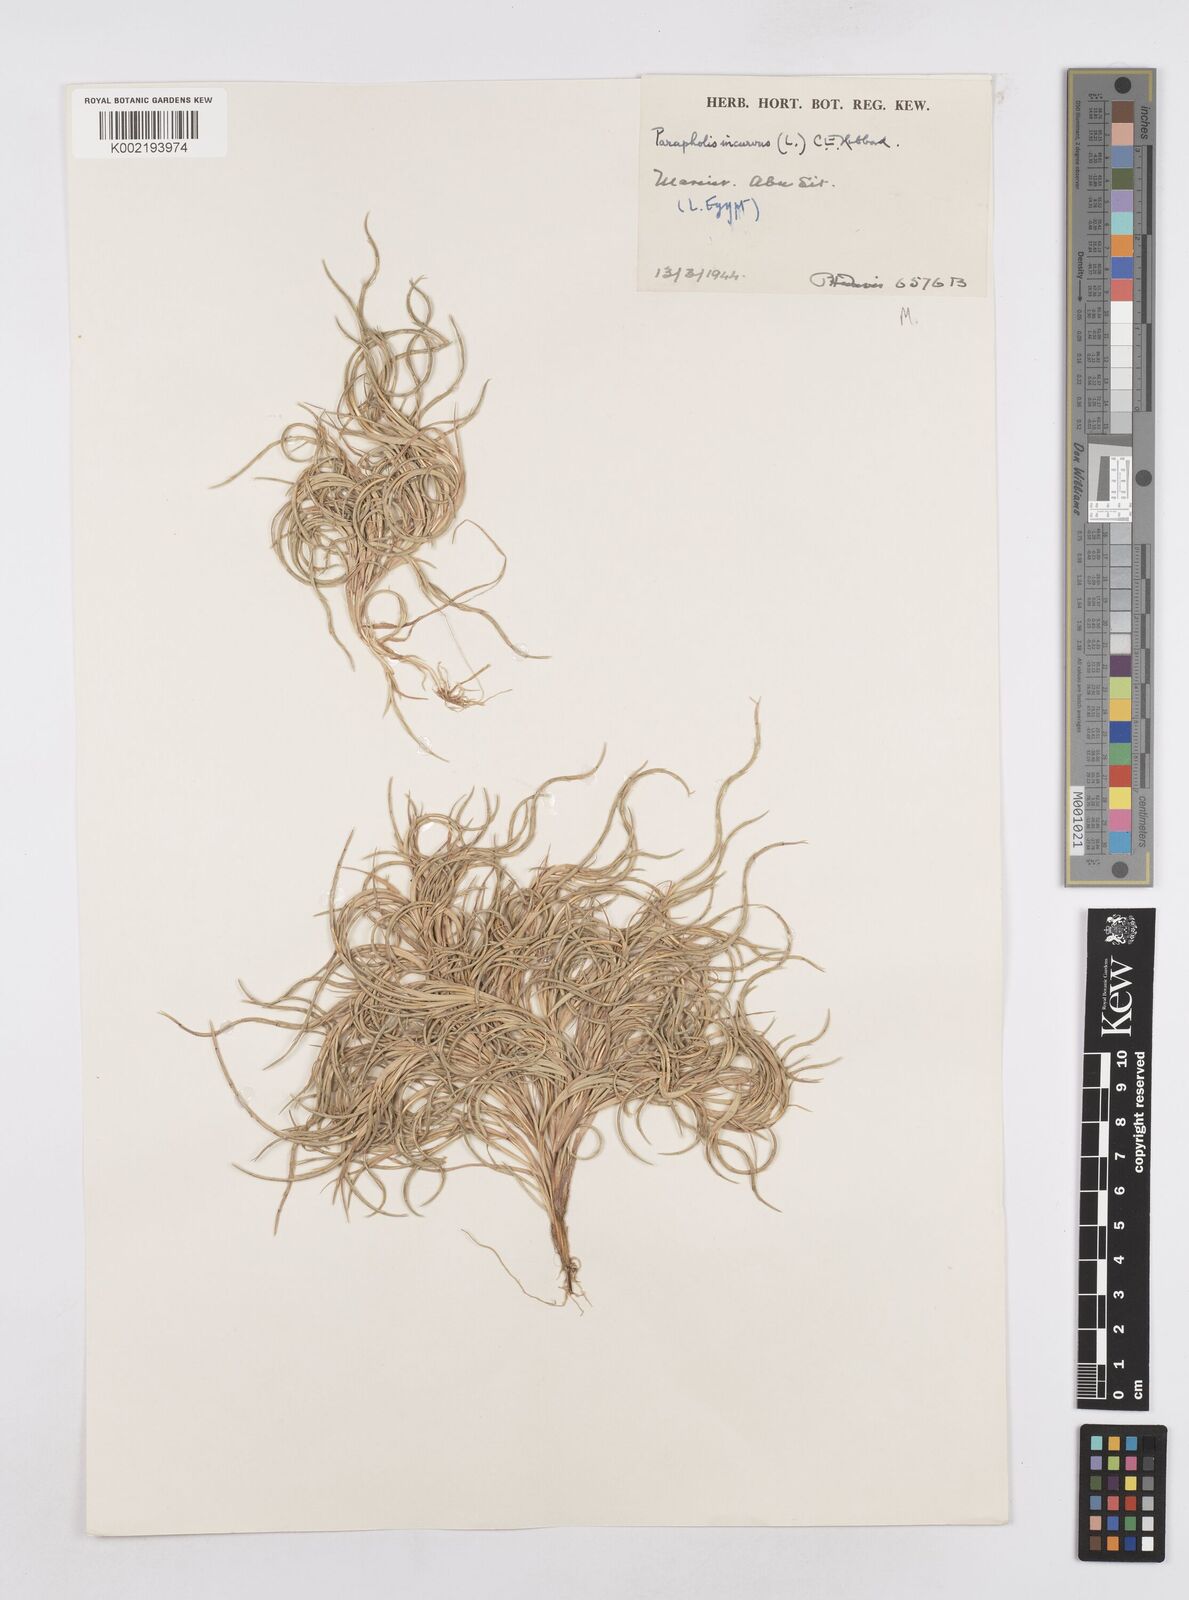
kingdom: Plantae
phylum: Tracheophyta
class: Liliopsida
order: Poales
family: Poaceae
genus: Parapholis
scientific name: Parapholis incurva
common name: Curved sicklegrass
